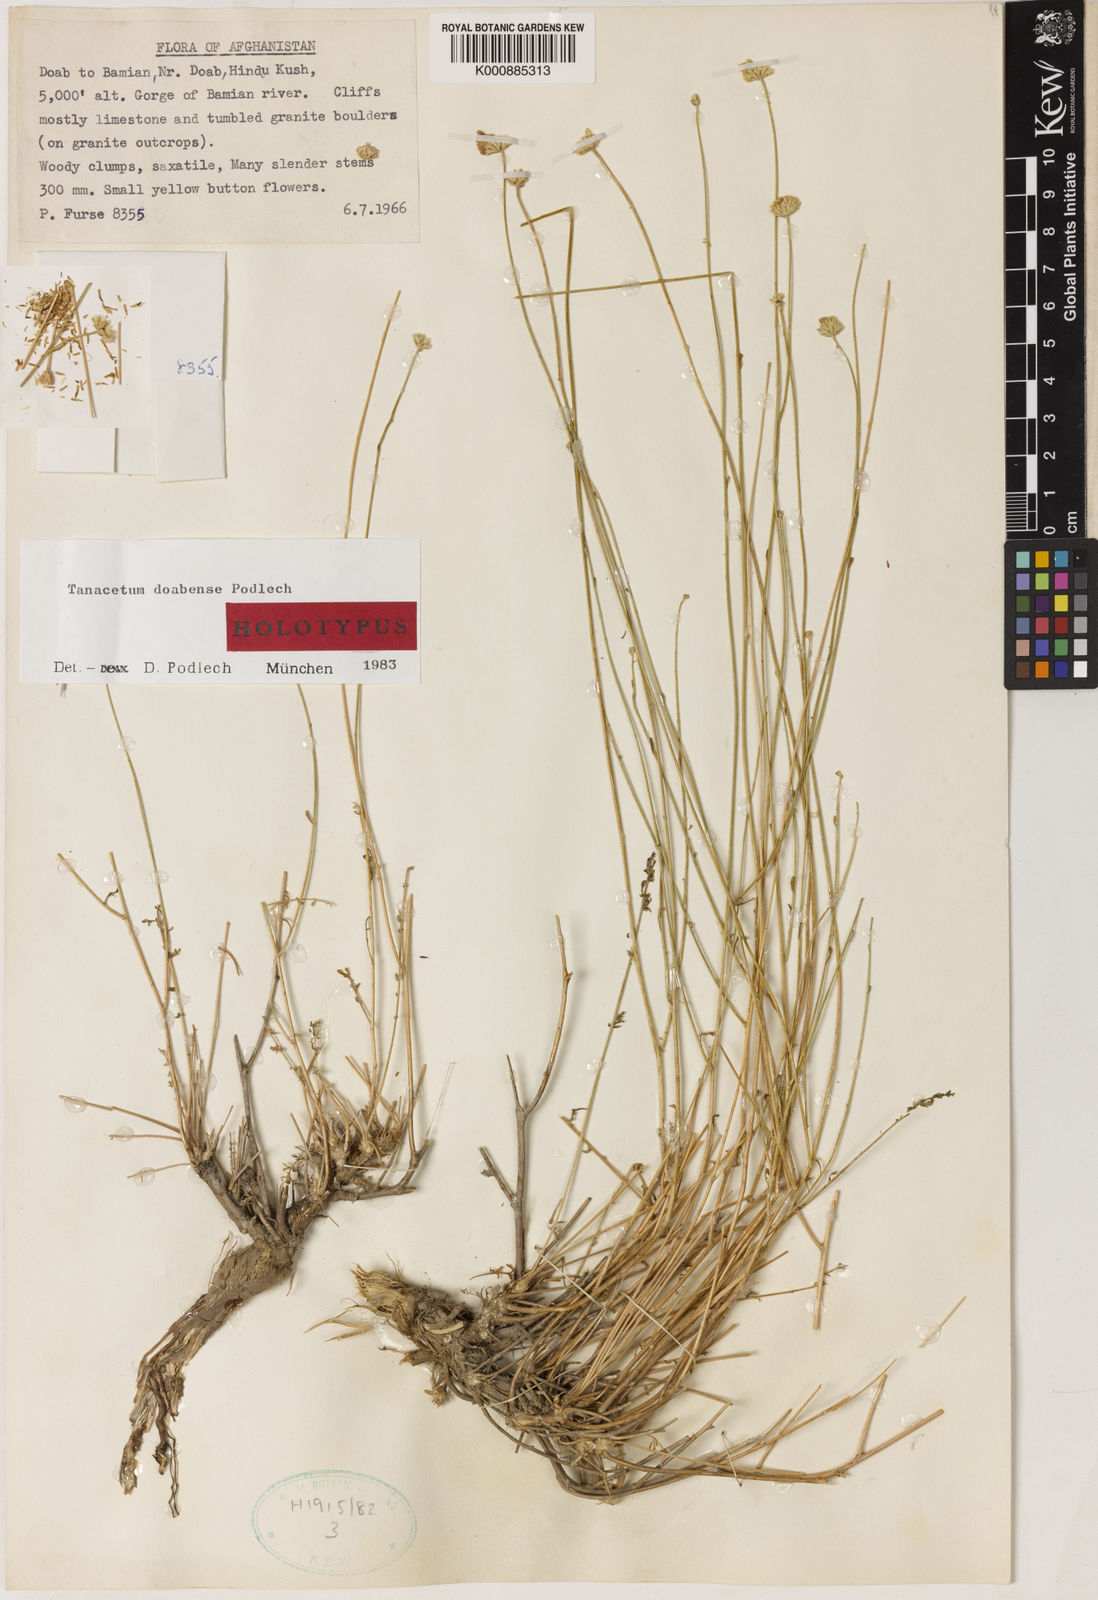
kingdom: Plantae
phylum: Tracheophyta
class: Magnoliopsida
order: Asterales
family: Asteraceae
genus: Tanacetopsis
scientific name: Tanacetopsis
